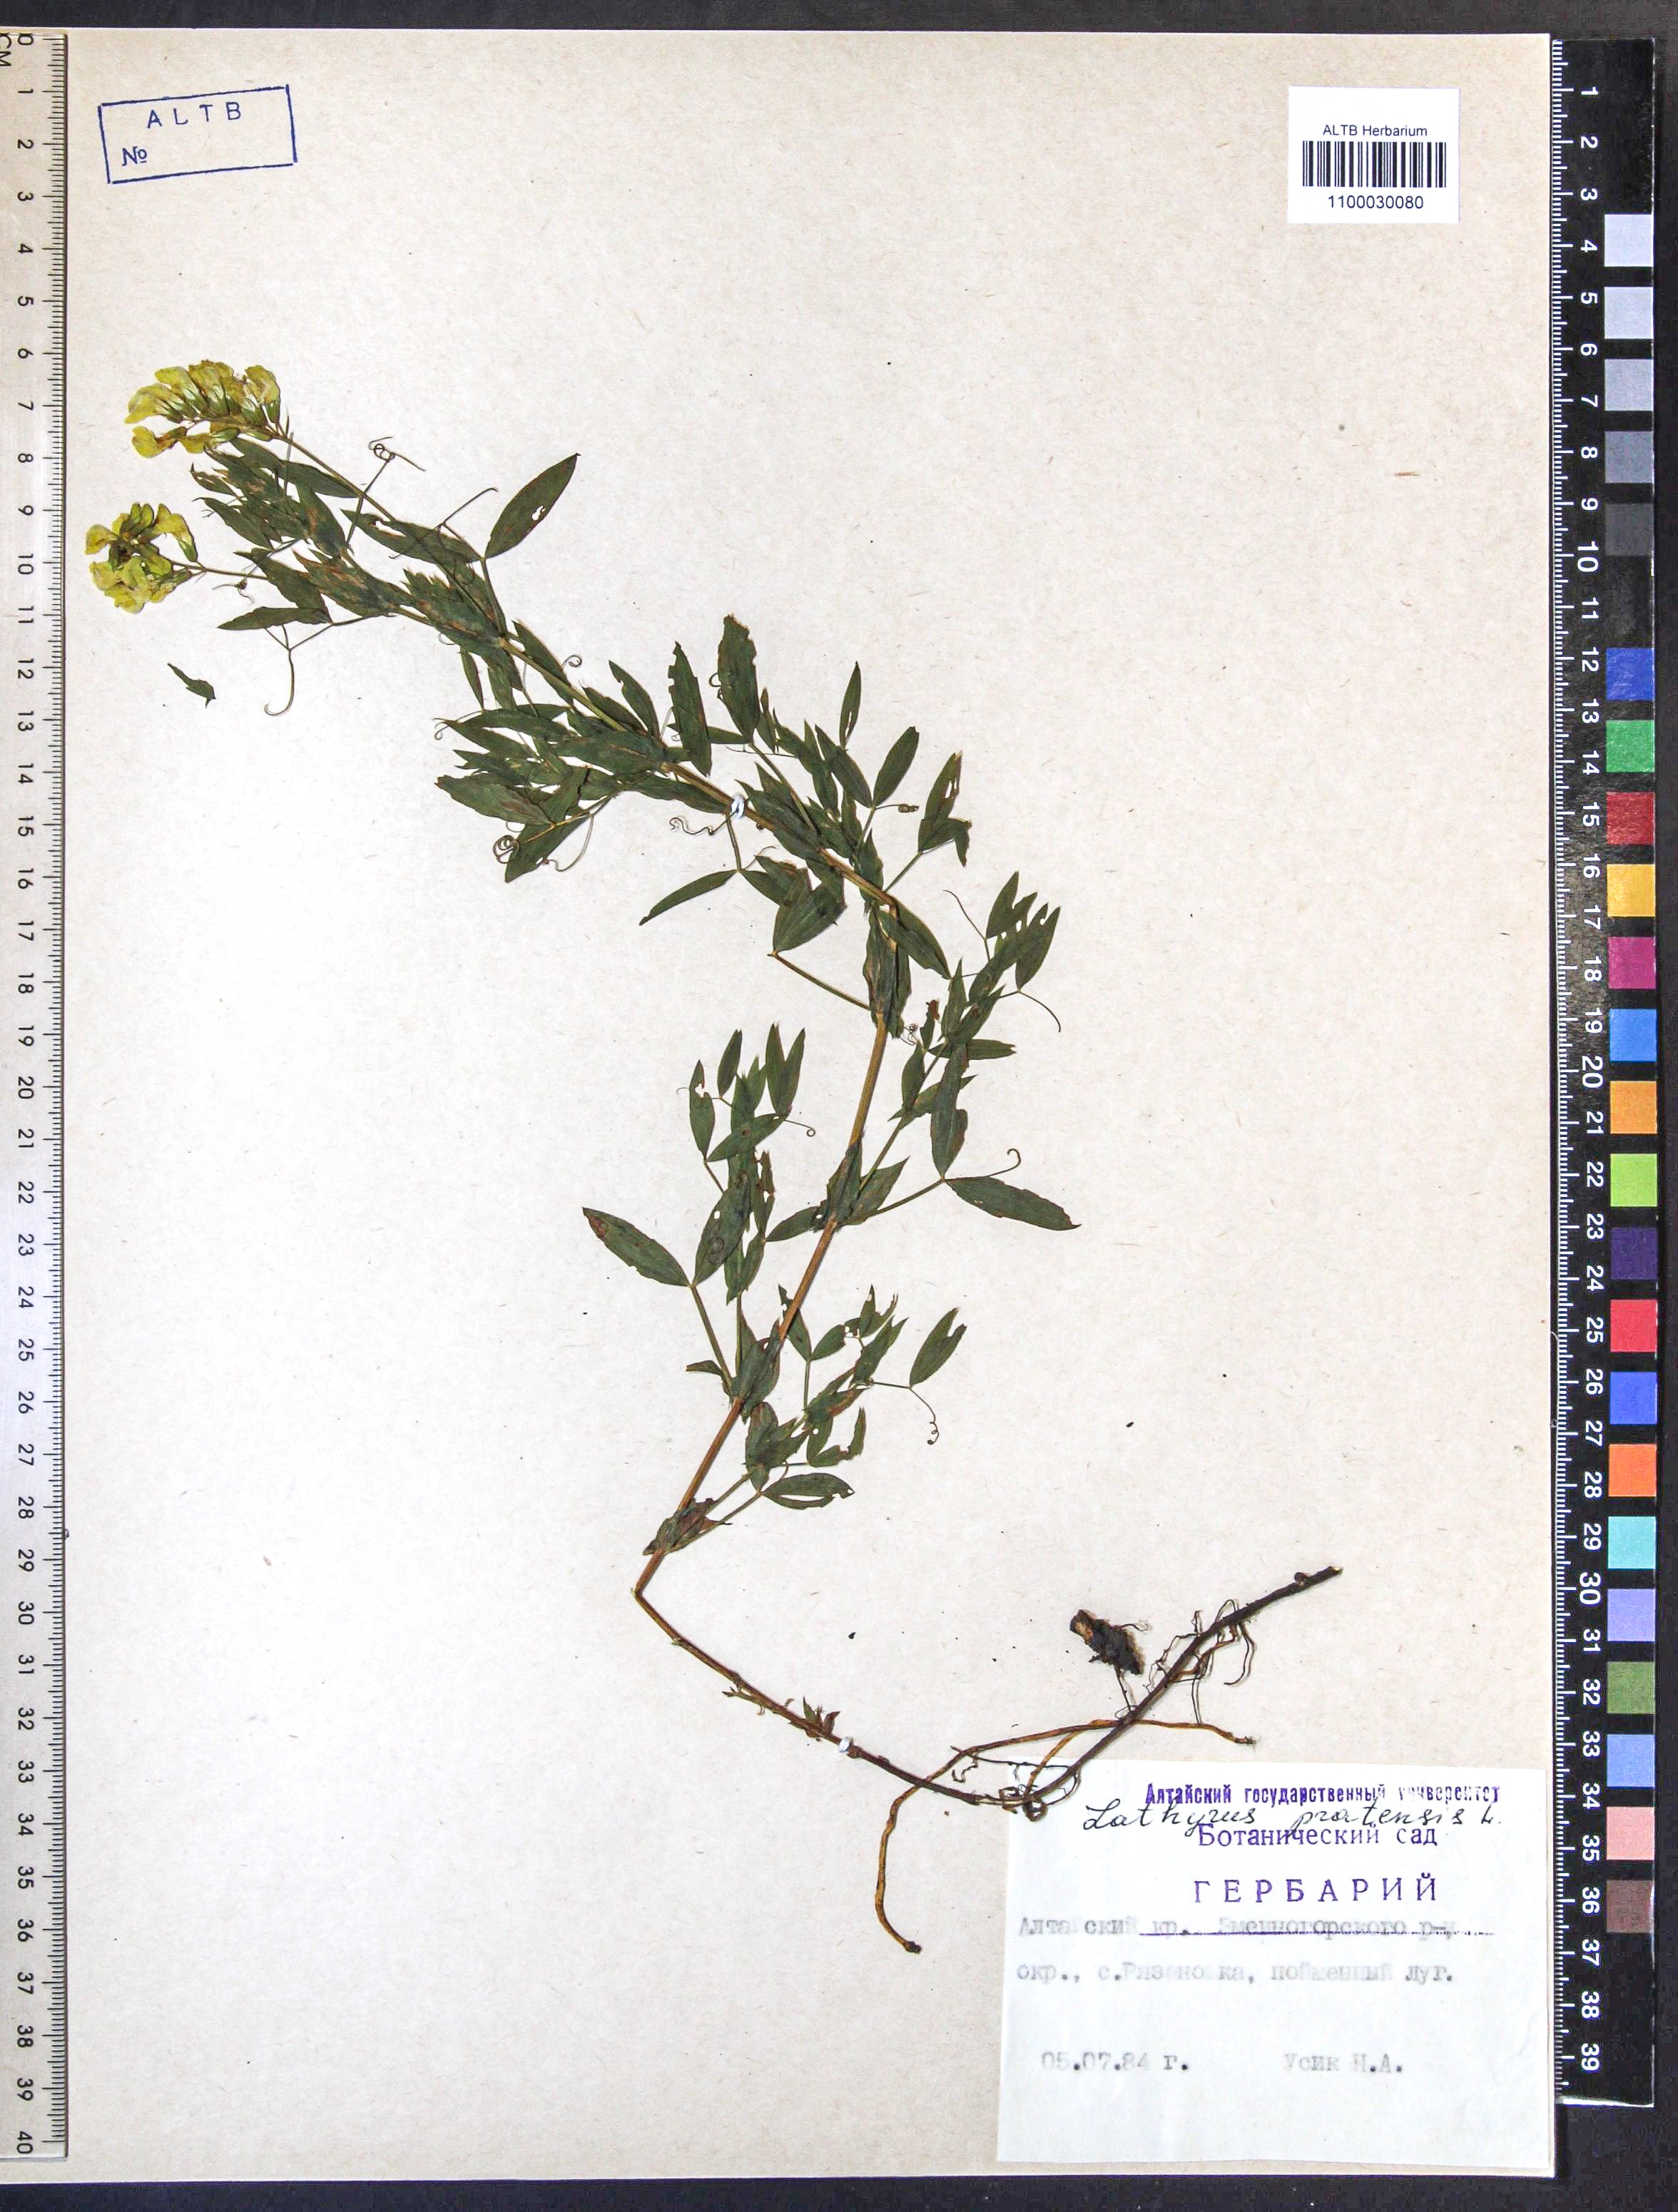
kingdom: Plantae
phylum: Tracheophyta
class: Magnoliopsida
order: Fabales
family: Fabaceae
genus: Lathyrus
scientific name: Lathyrus pratensis
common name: Meadow vetchling
